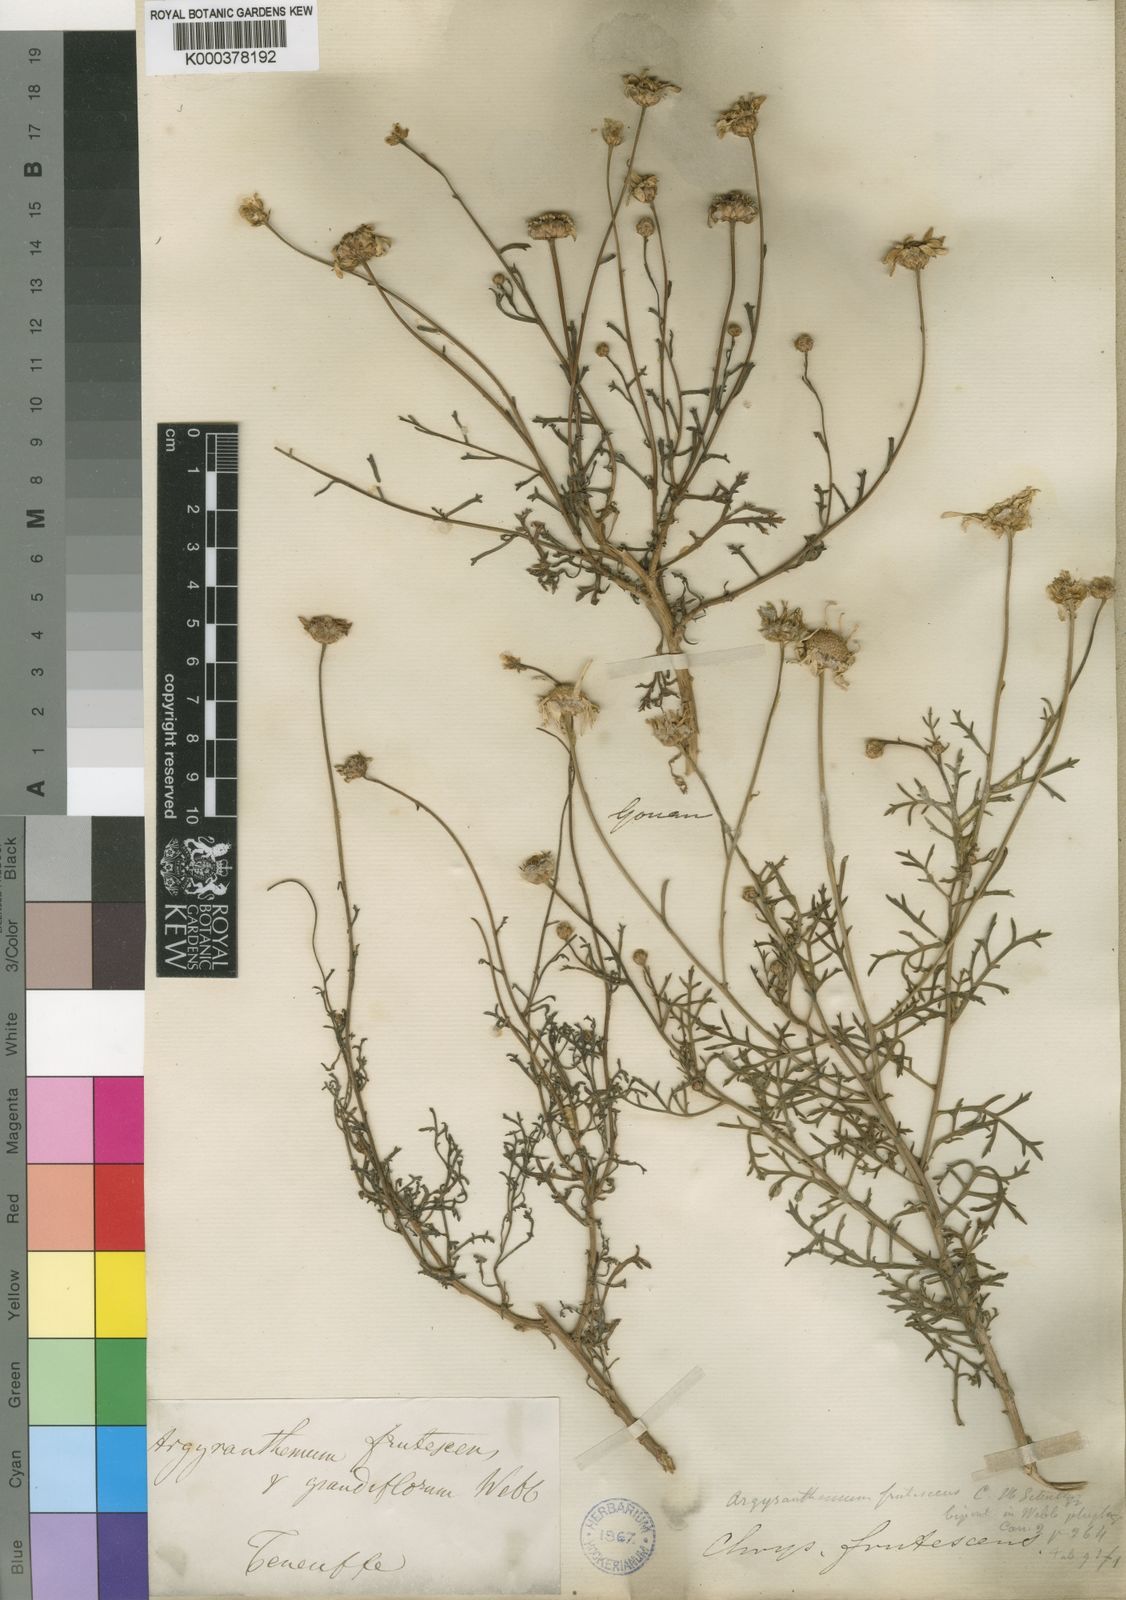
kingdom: Plantae
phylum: Tracheophyta
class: Magnoliopsida
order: Asterales
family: Asteraceae
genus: Argyranthemum
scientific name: Argyranthemum frutescens
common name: Paris daisy
